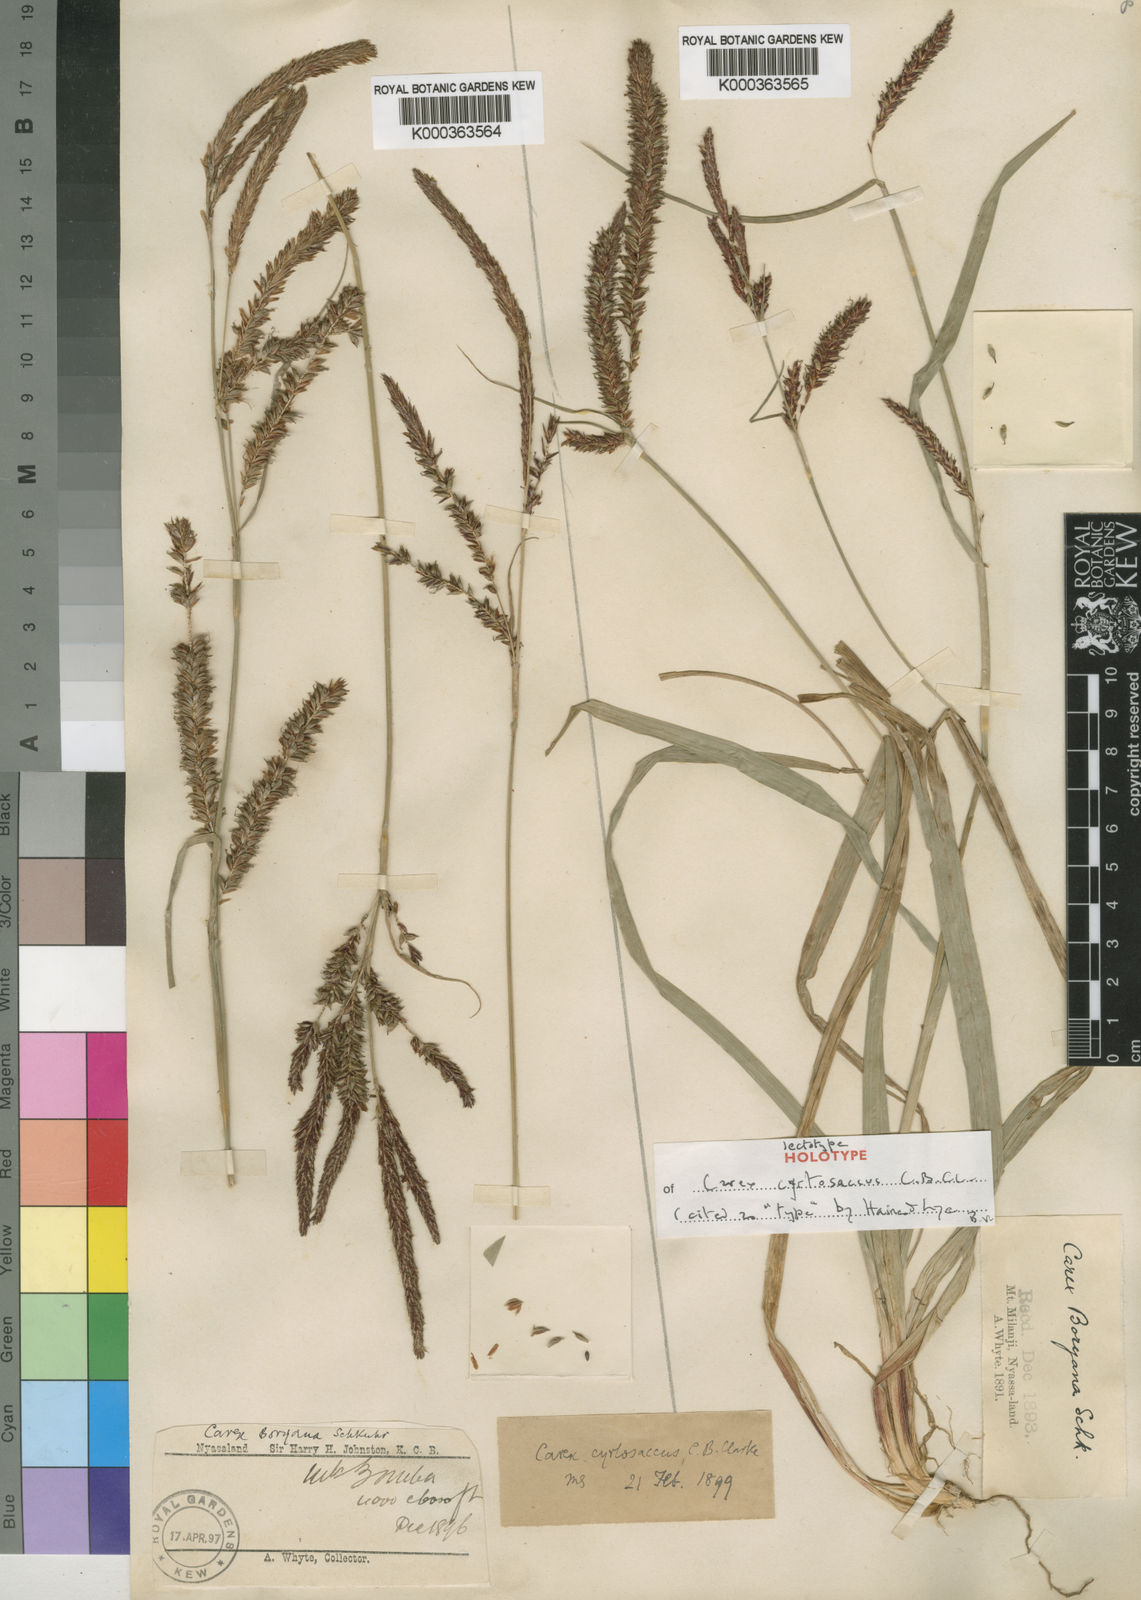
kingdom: Plantae
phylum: Tracheophyta
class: Liliopsida
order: Poales
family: Cyperaceae
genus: Carex
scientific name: Carex vallis-rosetto
